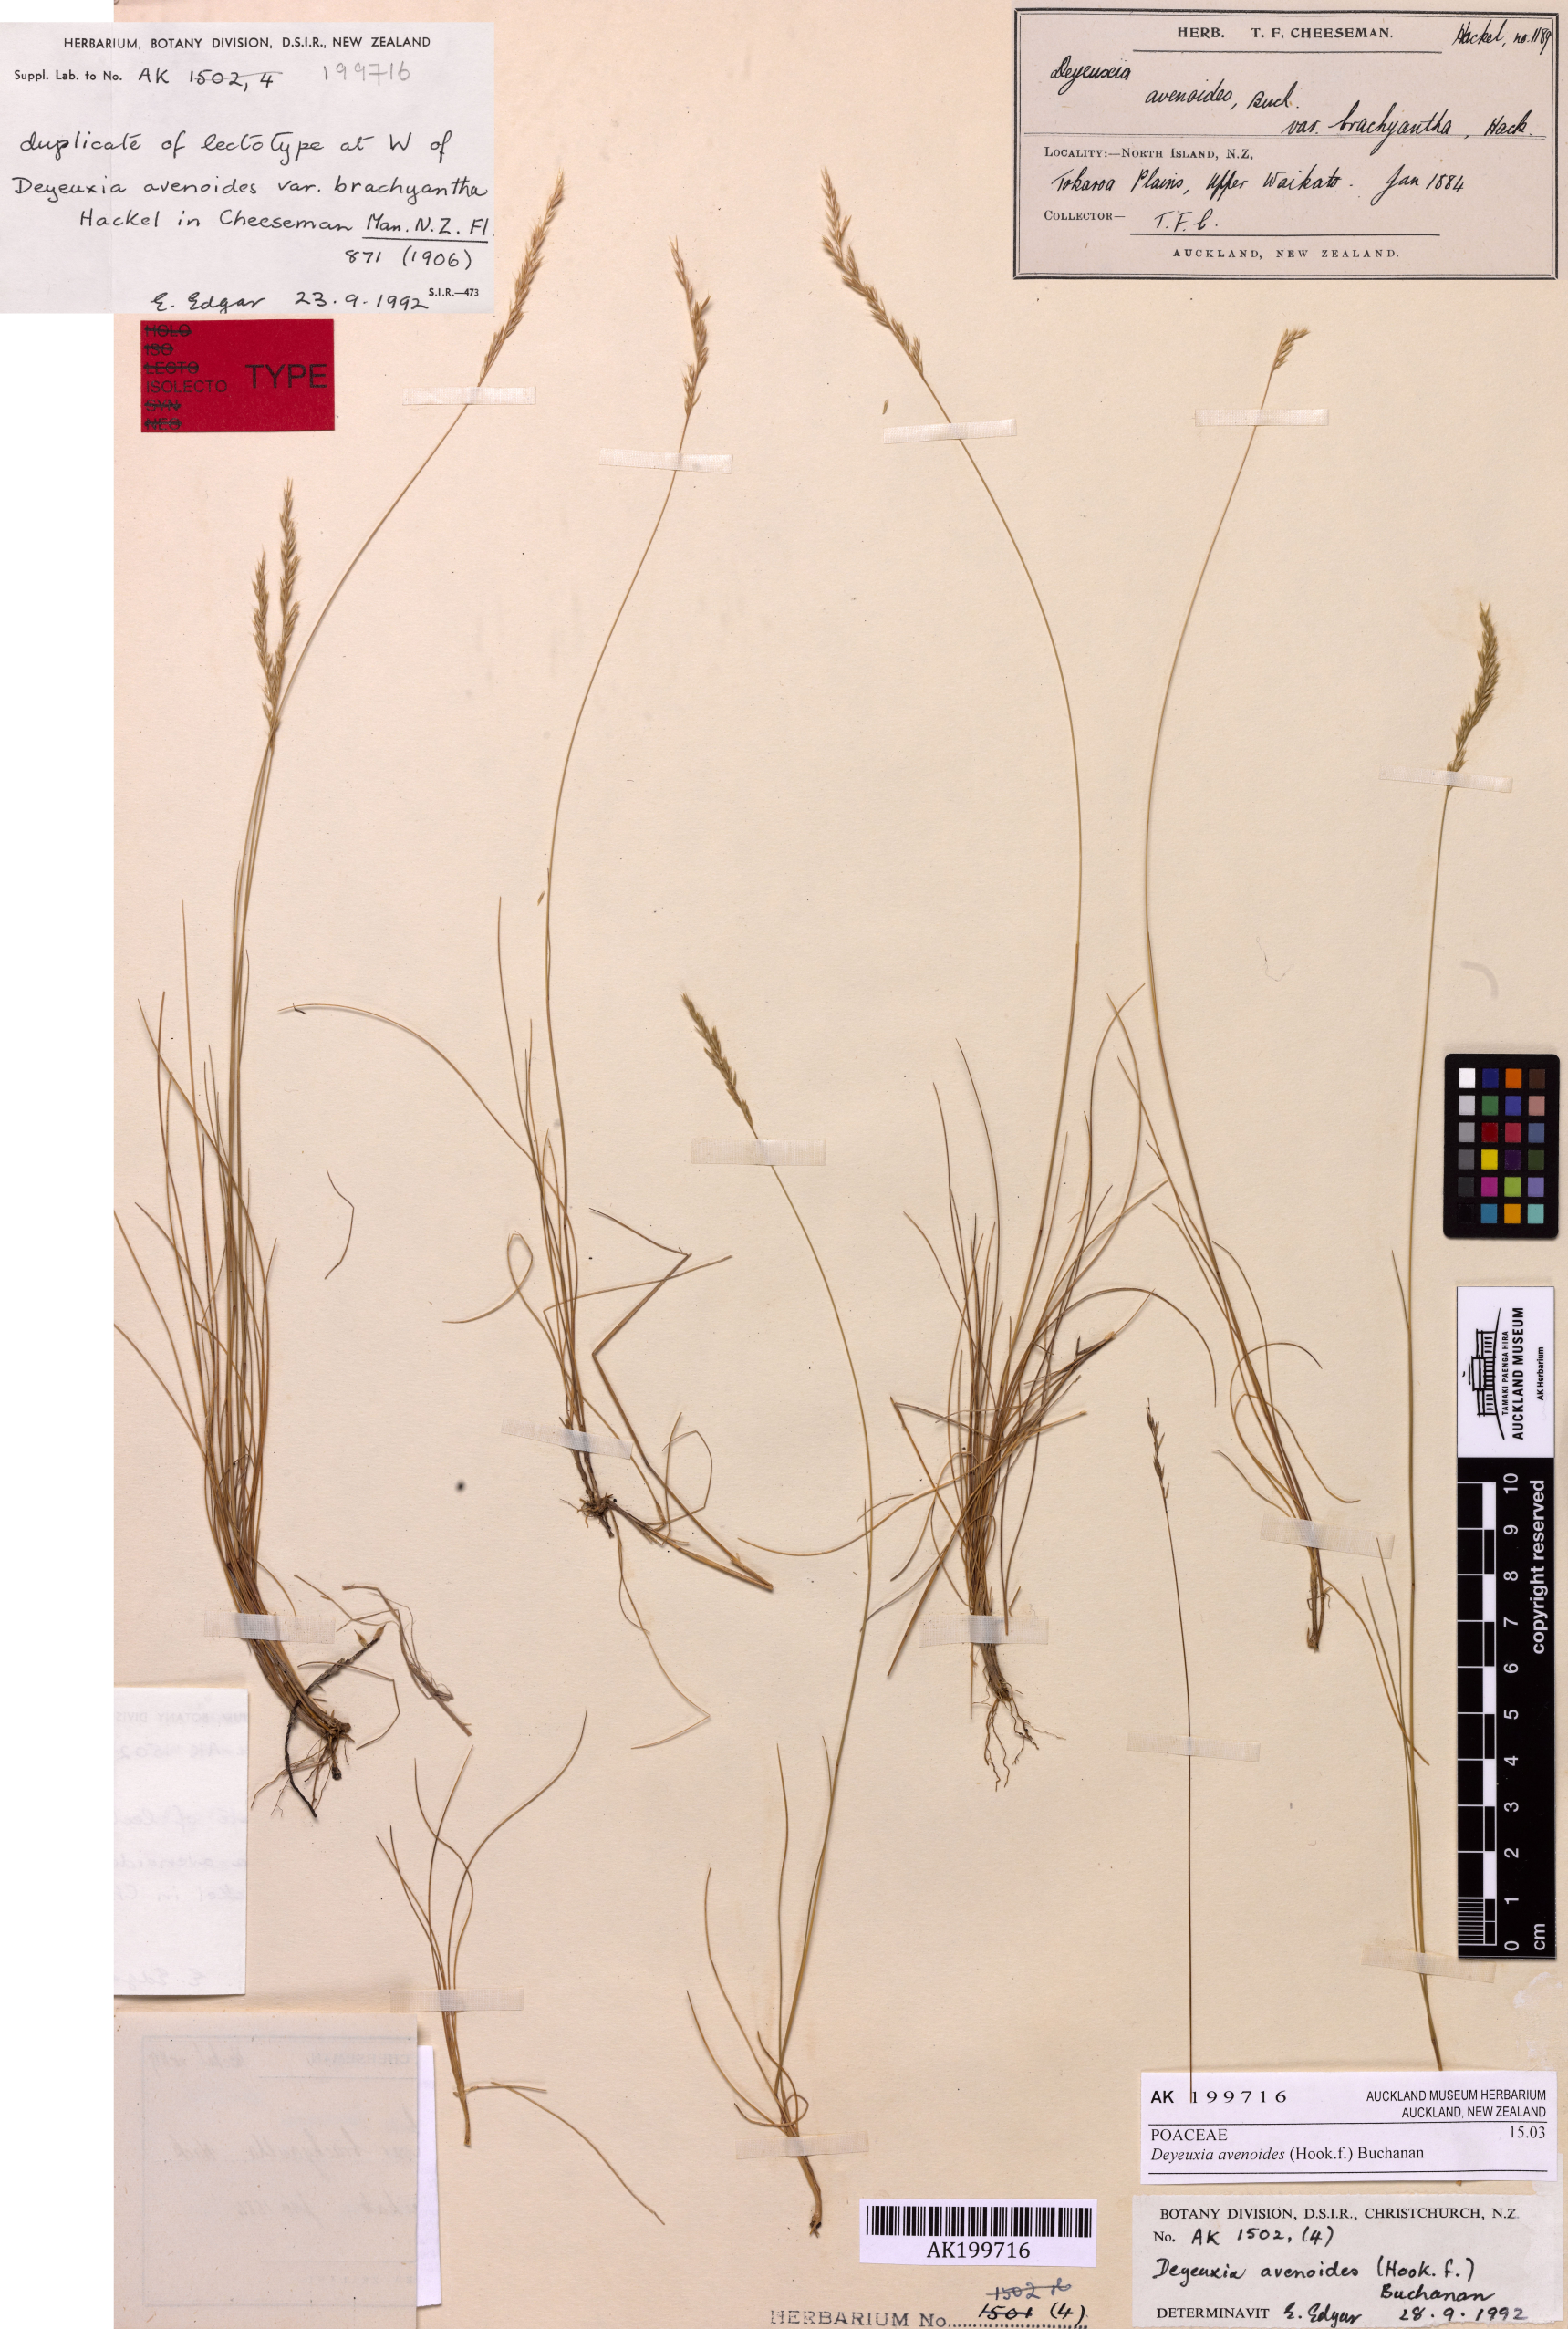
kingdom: Plantae
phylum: Tracheophyta
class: Liliopsida
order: Poales
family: Poaceae
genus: Calamagrostis
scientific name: Calamagrostis avenoides
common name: Mountain oat grass
